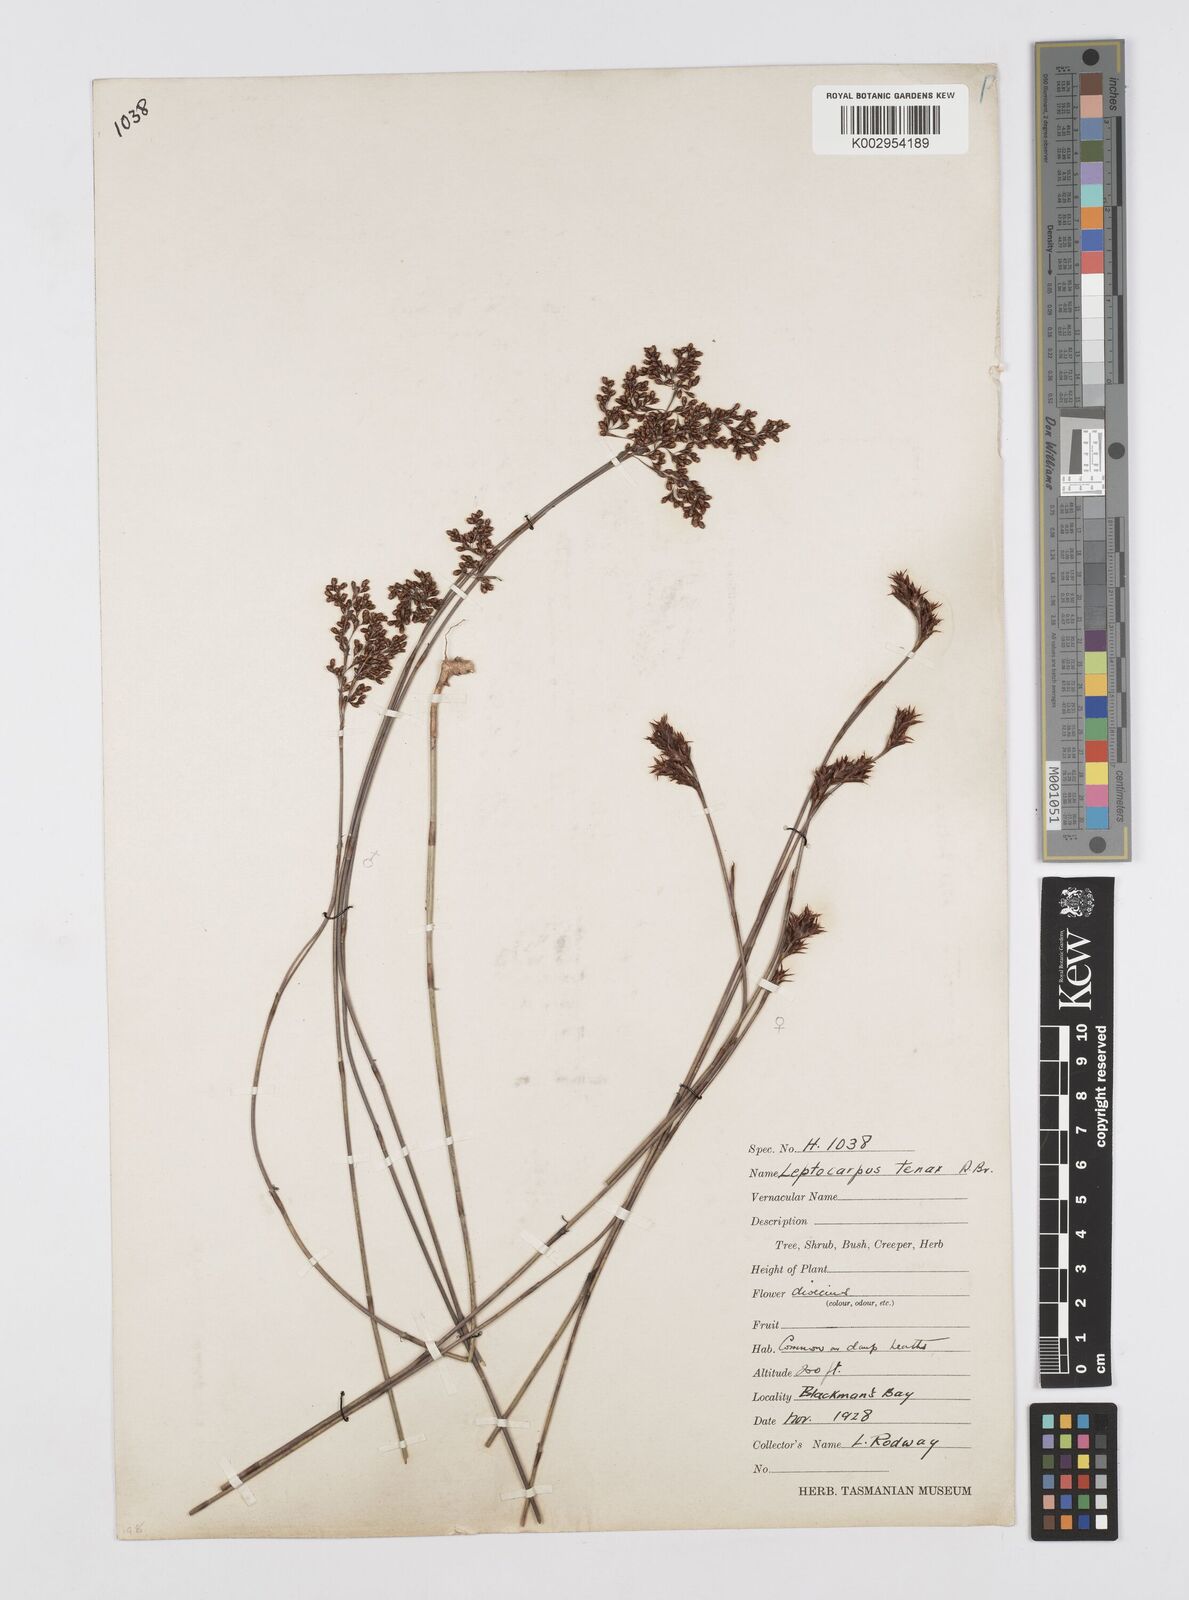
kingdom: Plantae
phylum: Tracheophyta
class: Liliopsida
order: Poales
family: Restionaceae
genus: Leptocarpus
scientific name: Leptocarpus tenax
